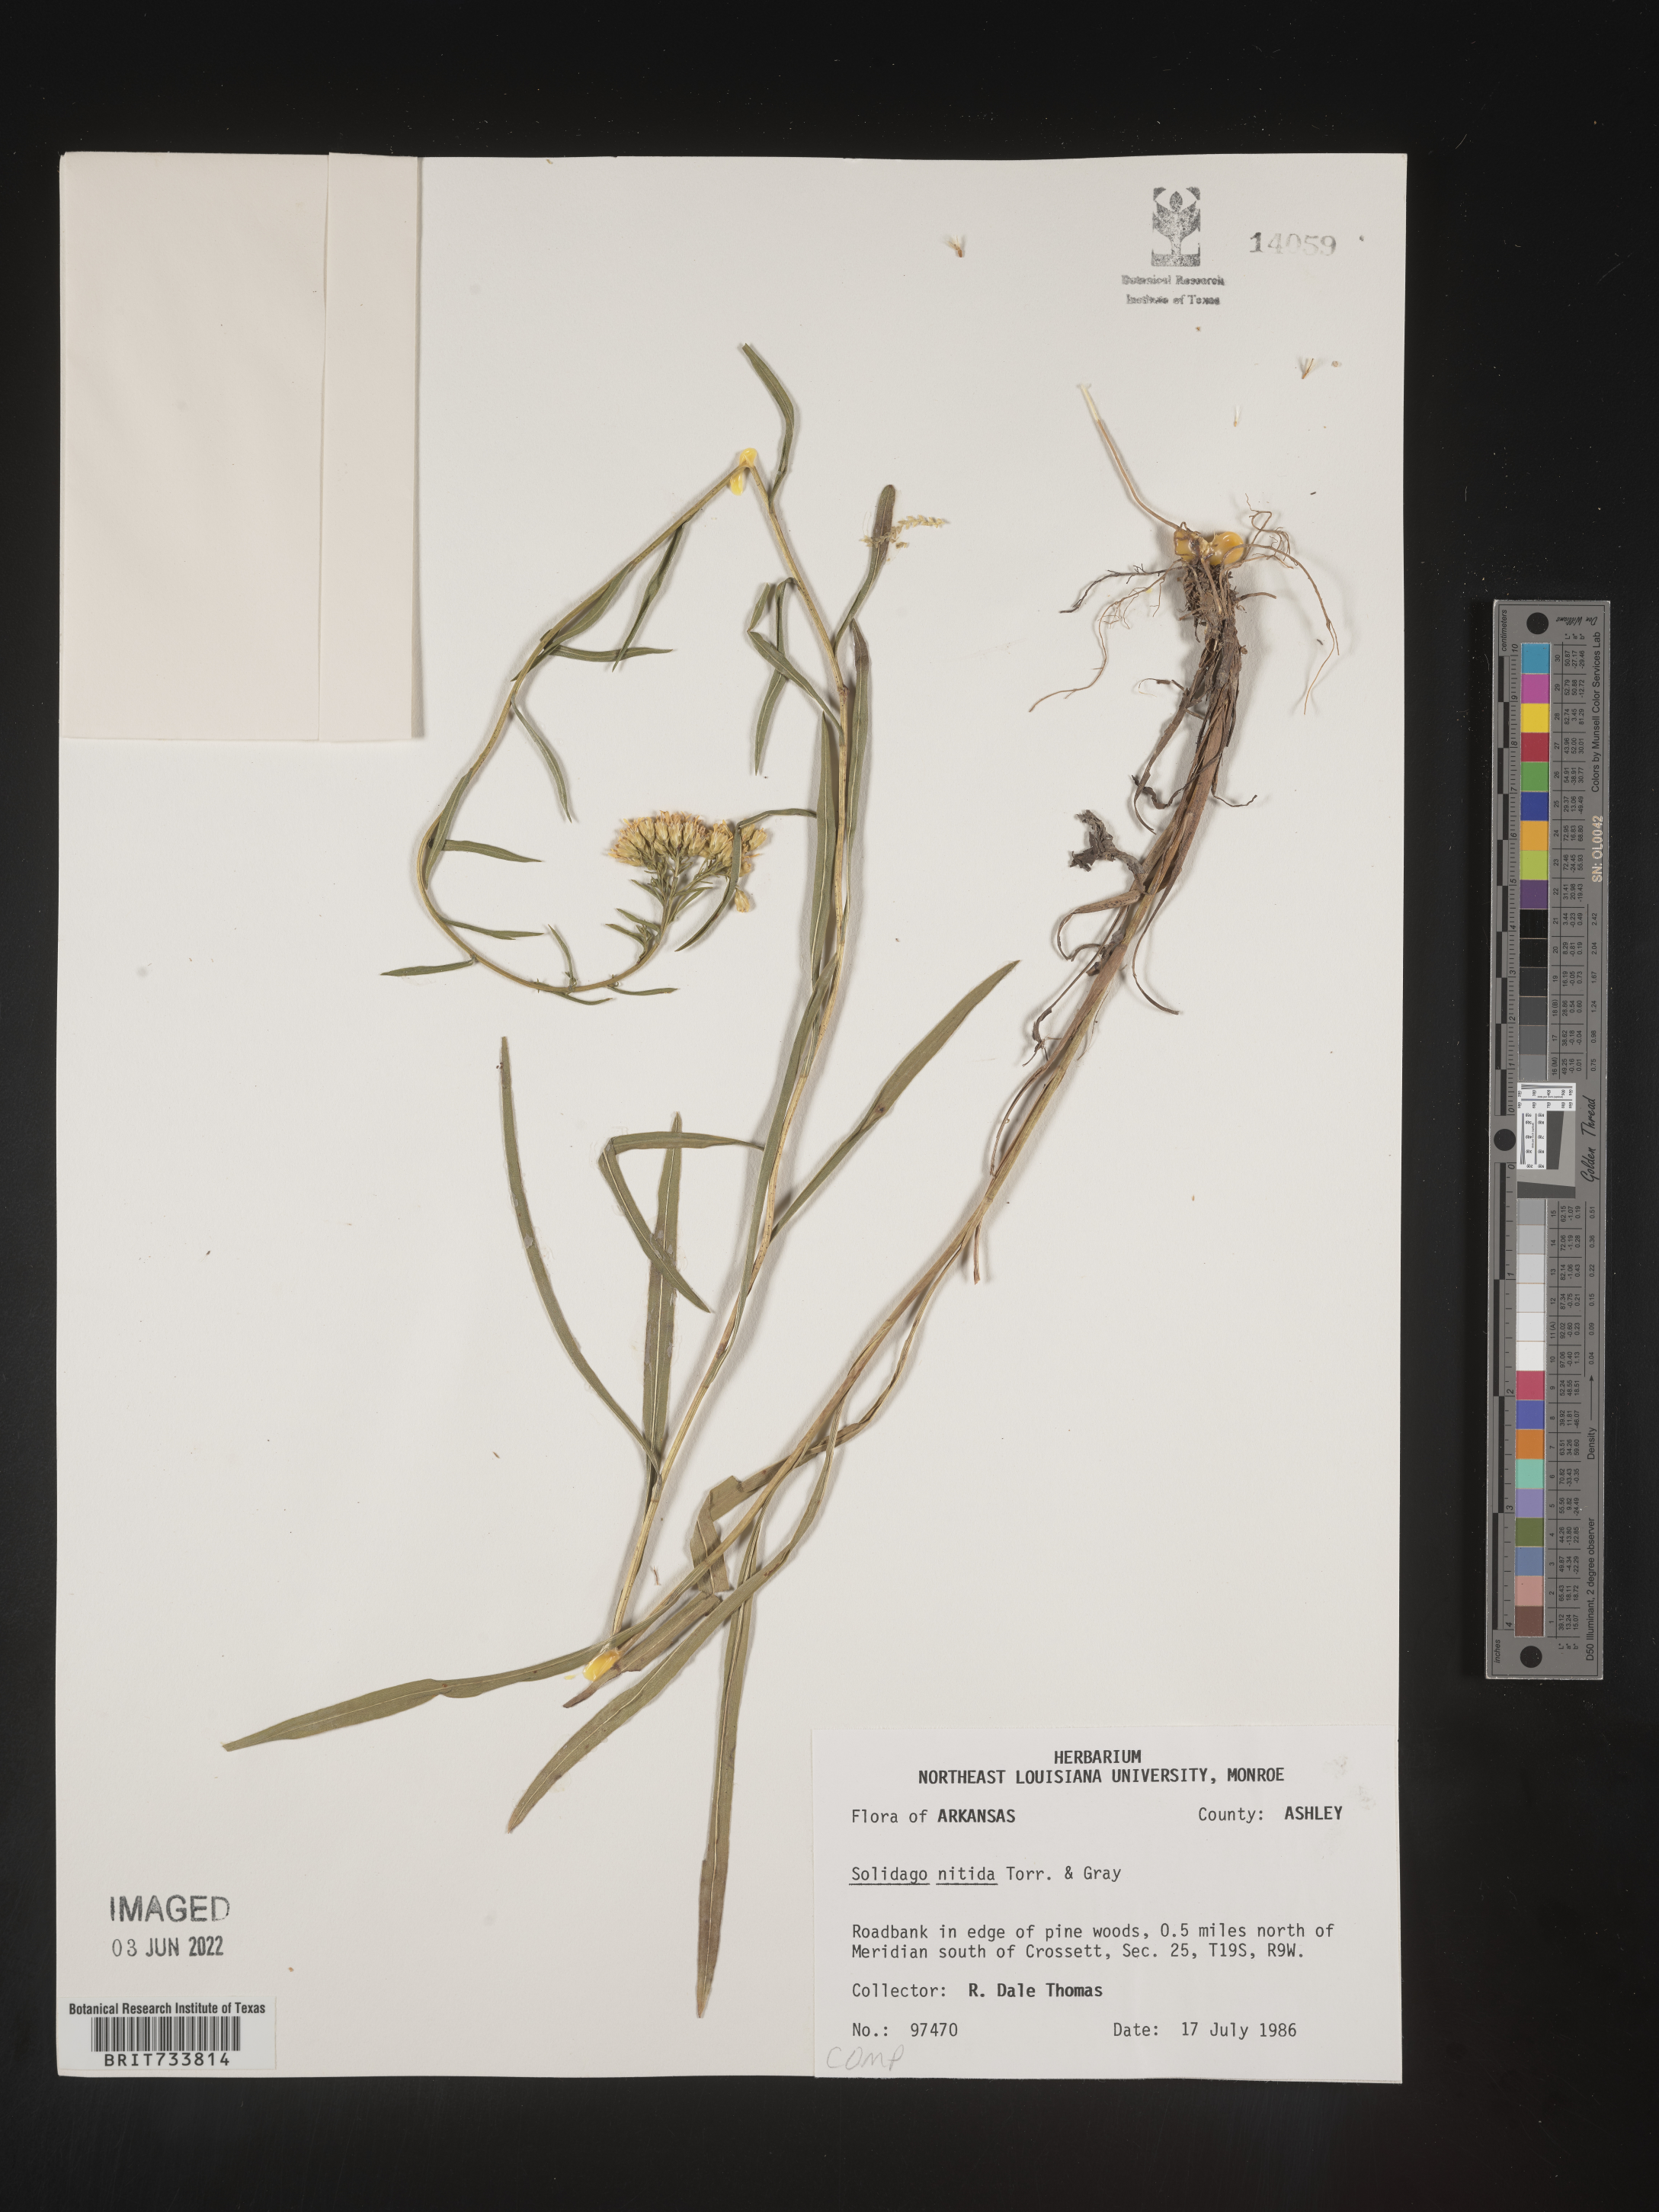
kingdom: Plantae
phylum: Tracheophyta
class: Magnoliopsida
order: Asterales
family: Asteraceae
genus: Solidago
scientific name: Solidago nitida
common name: Shiny goldenrod
